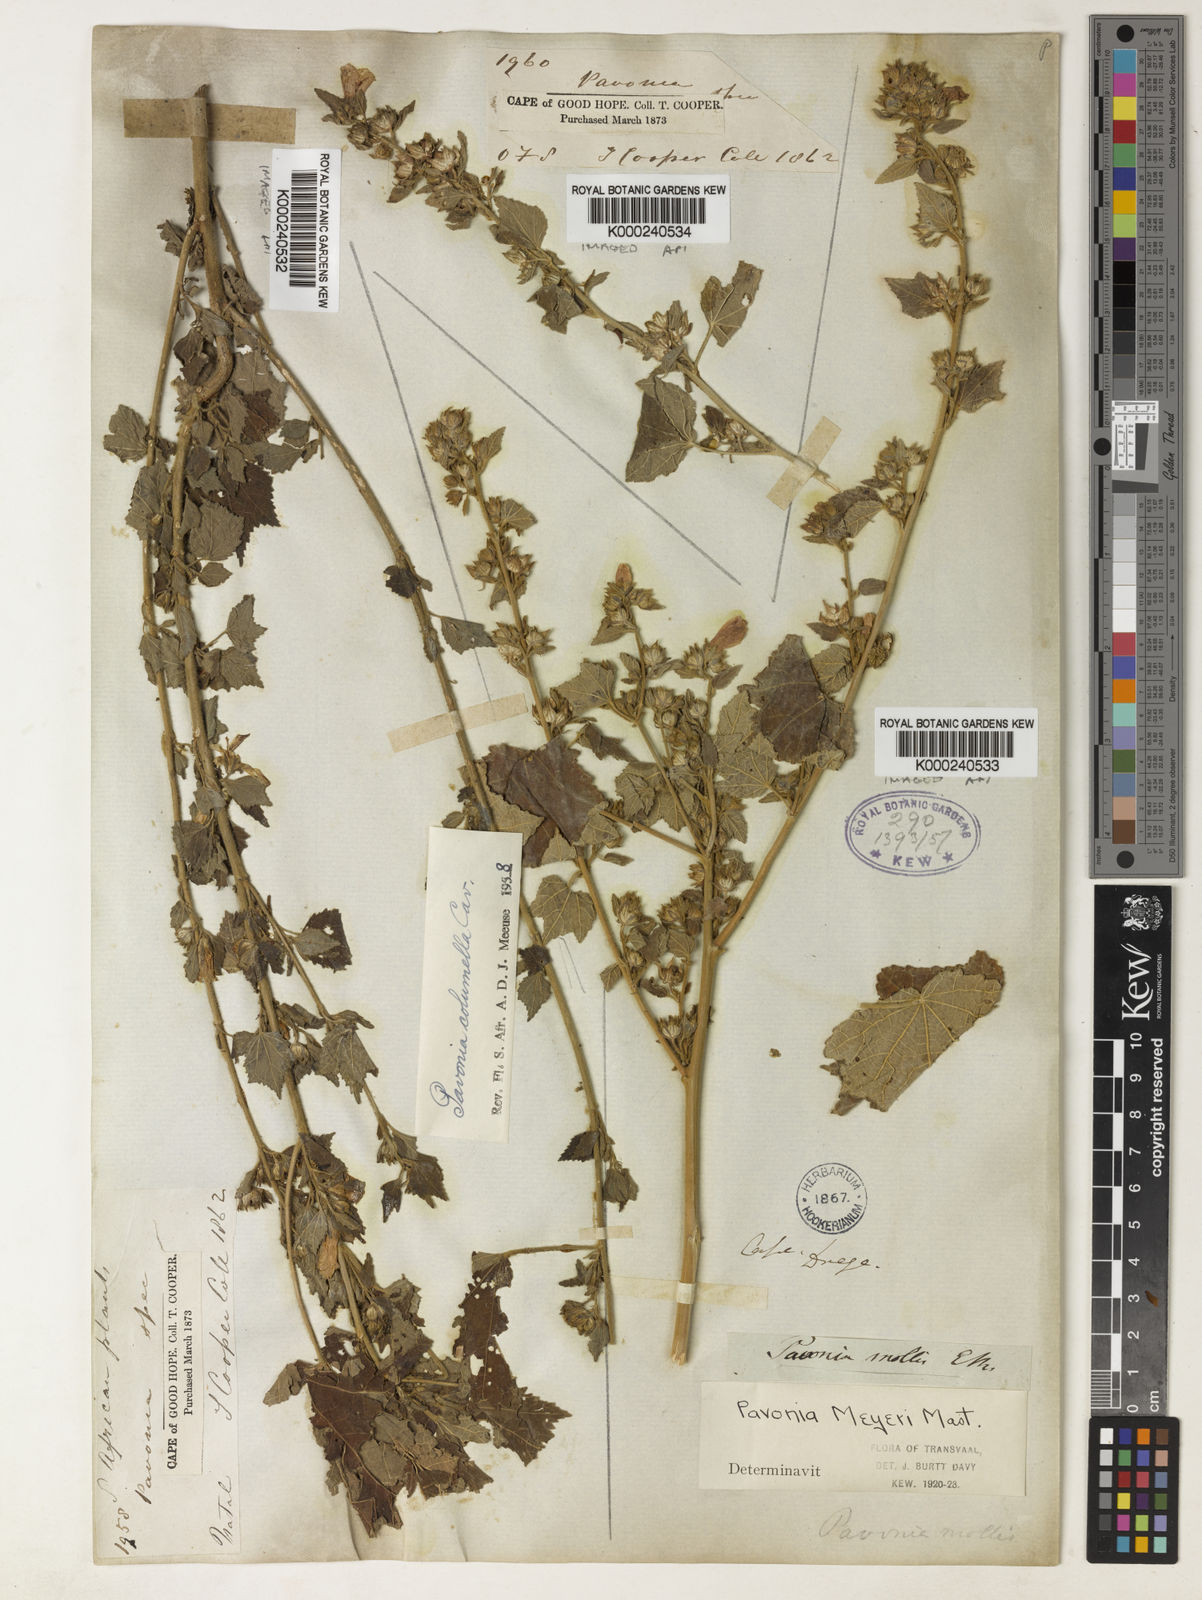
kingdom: Plantae
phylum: Tracheophyta
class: Magnoliopsida
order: Malvales
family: Malvaceae
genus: Pavonia
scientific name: Pavonia columella
